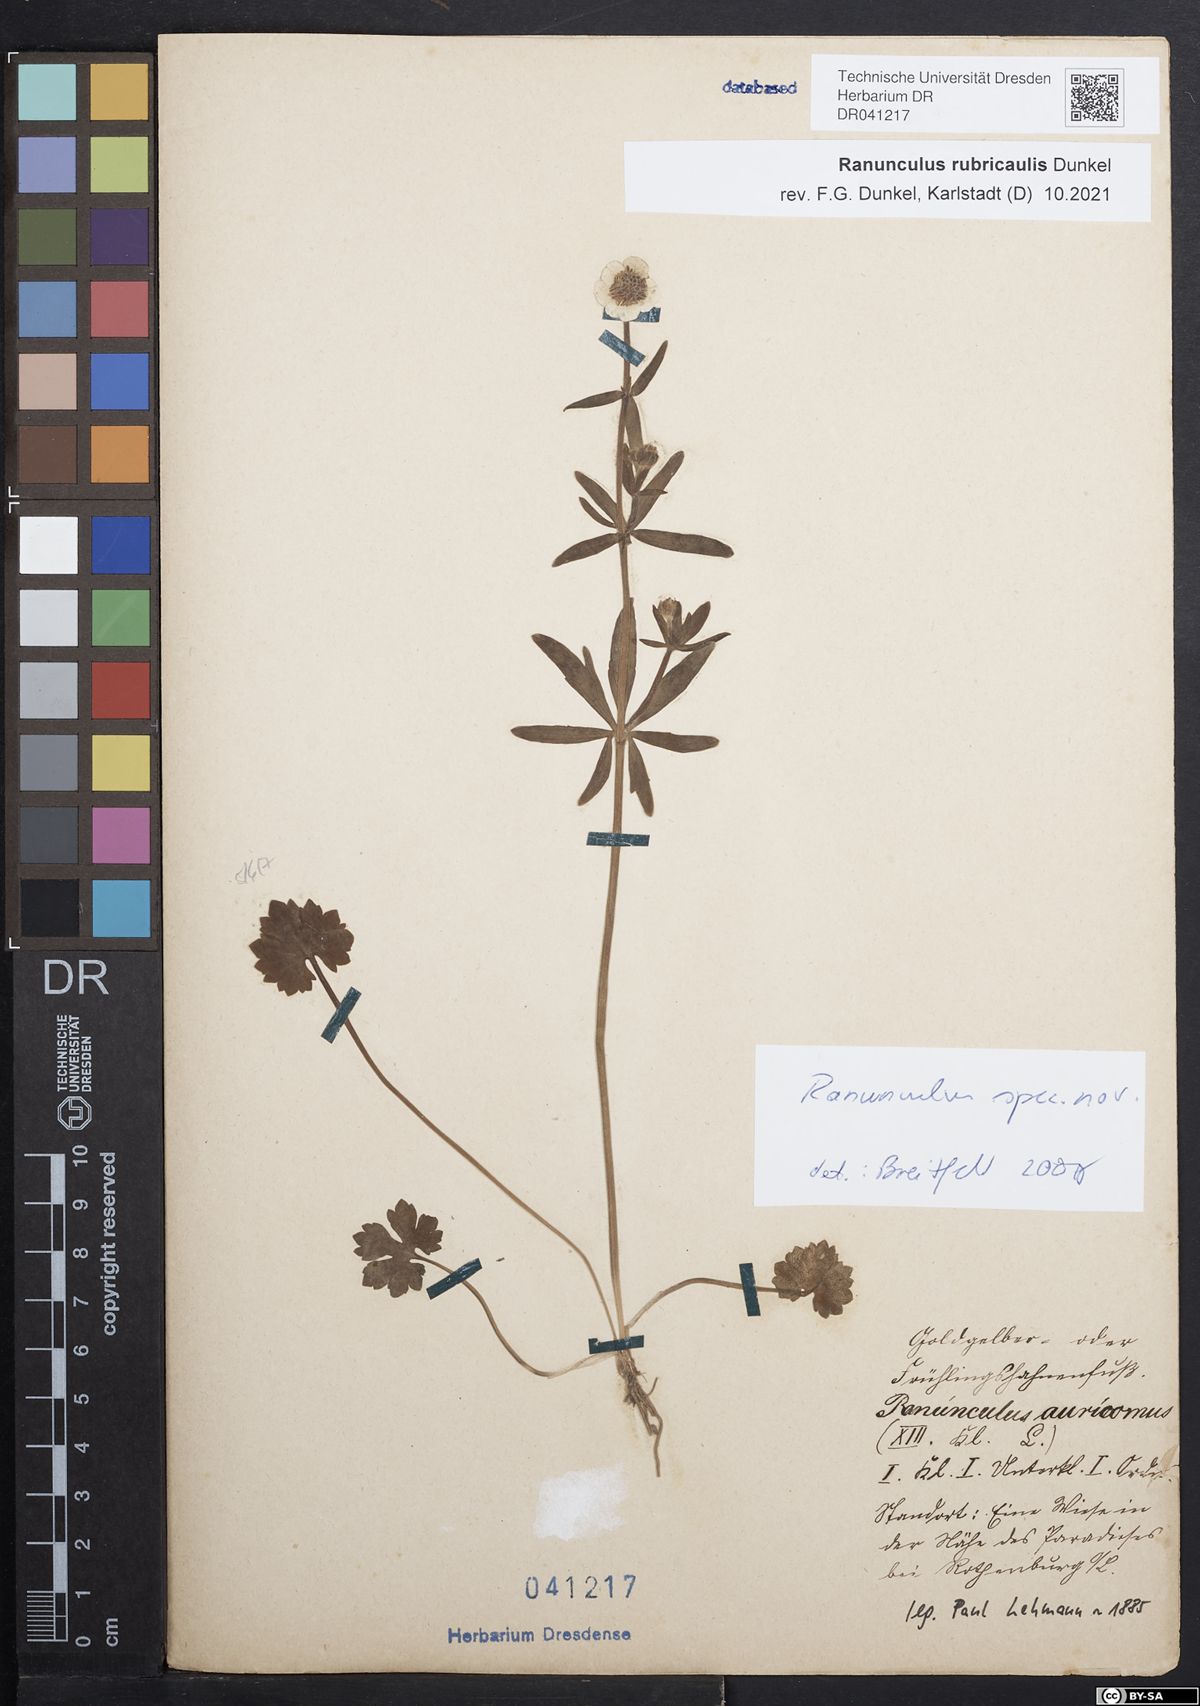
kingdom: Plantae
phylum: Tracheophyta
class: Magnoliopsida
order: Ranunculales
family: Ranunculaceae
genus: Ranunculus
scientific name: Ranunculus rubricaulis
